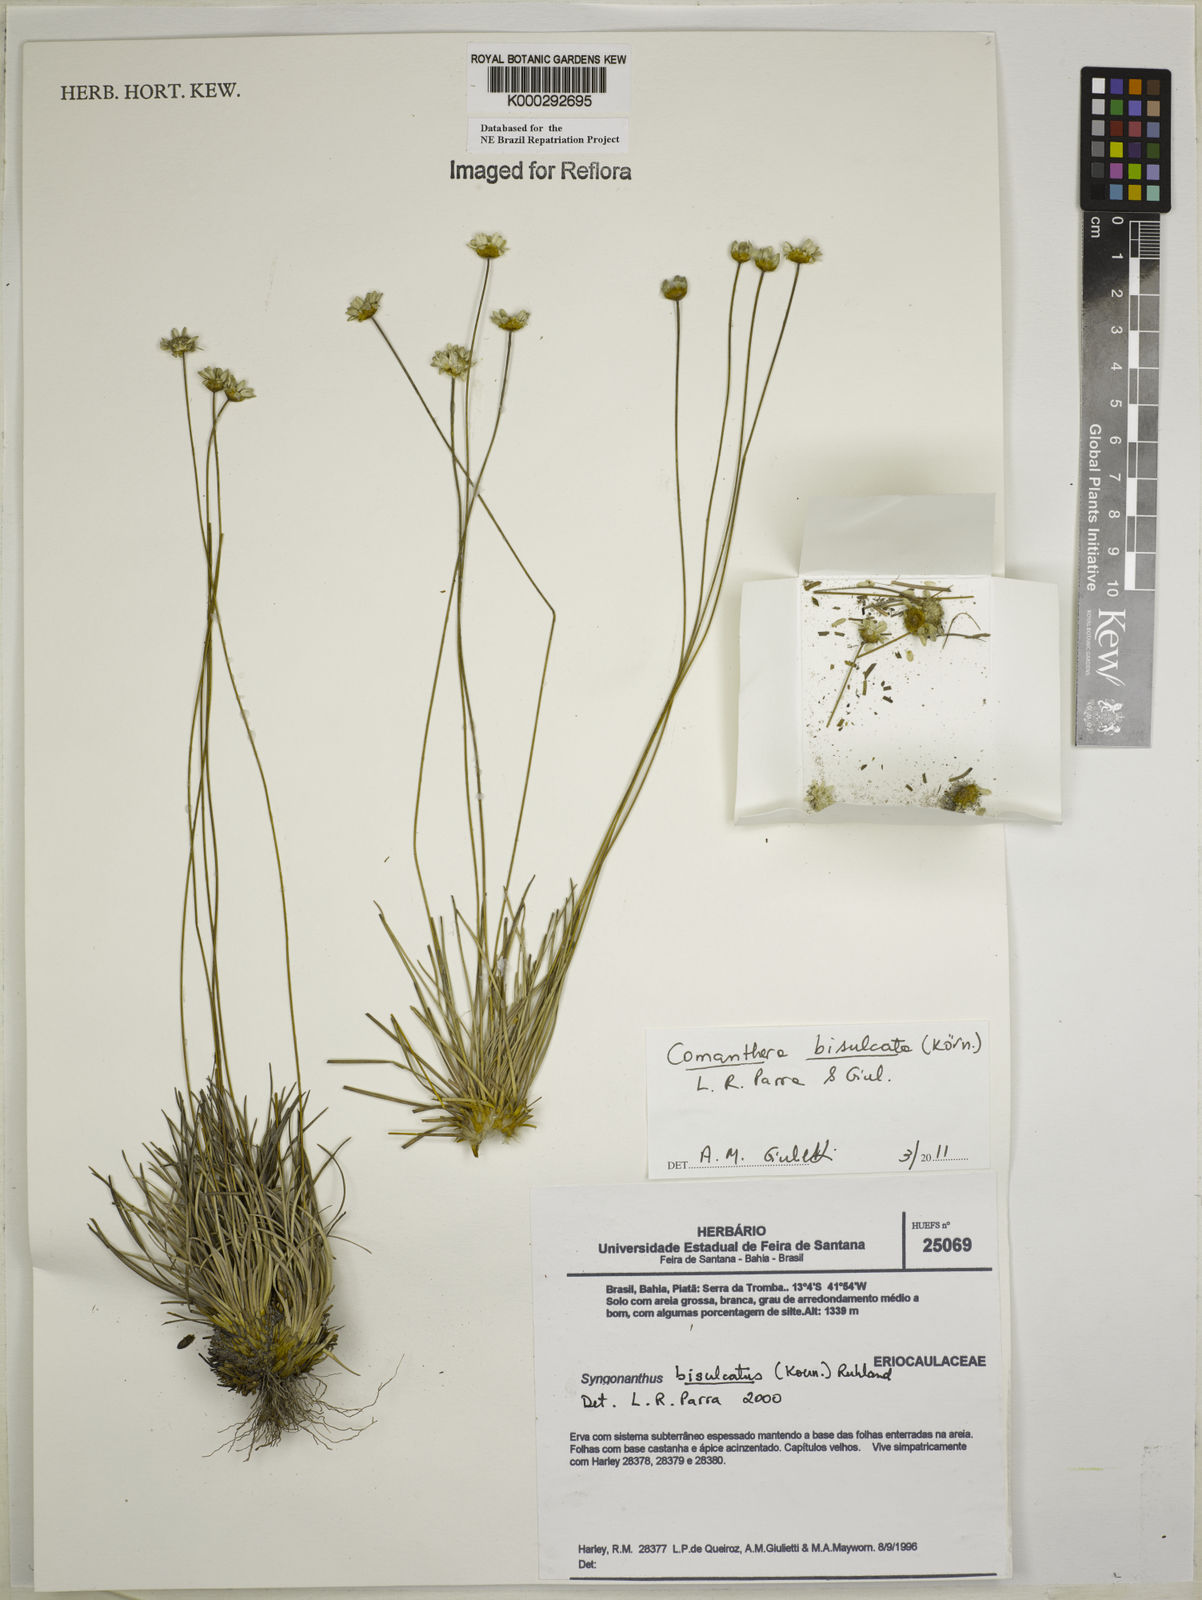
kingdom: Plantae
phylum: Tracheophyta
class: Liliopsida
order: Poales
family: Eriocaulaceae
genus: Comanthera
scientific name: Comanthera bisulcata
